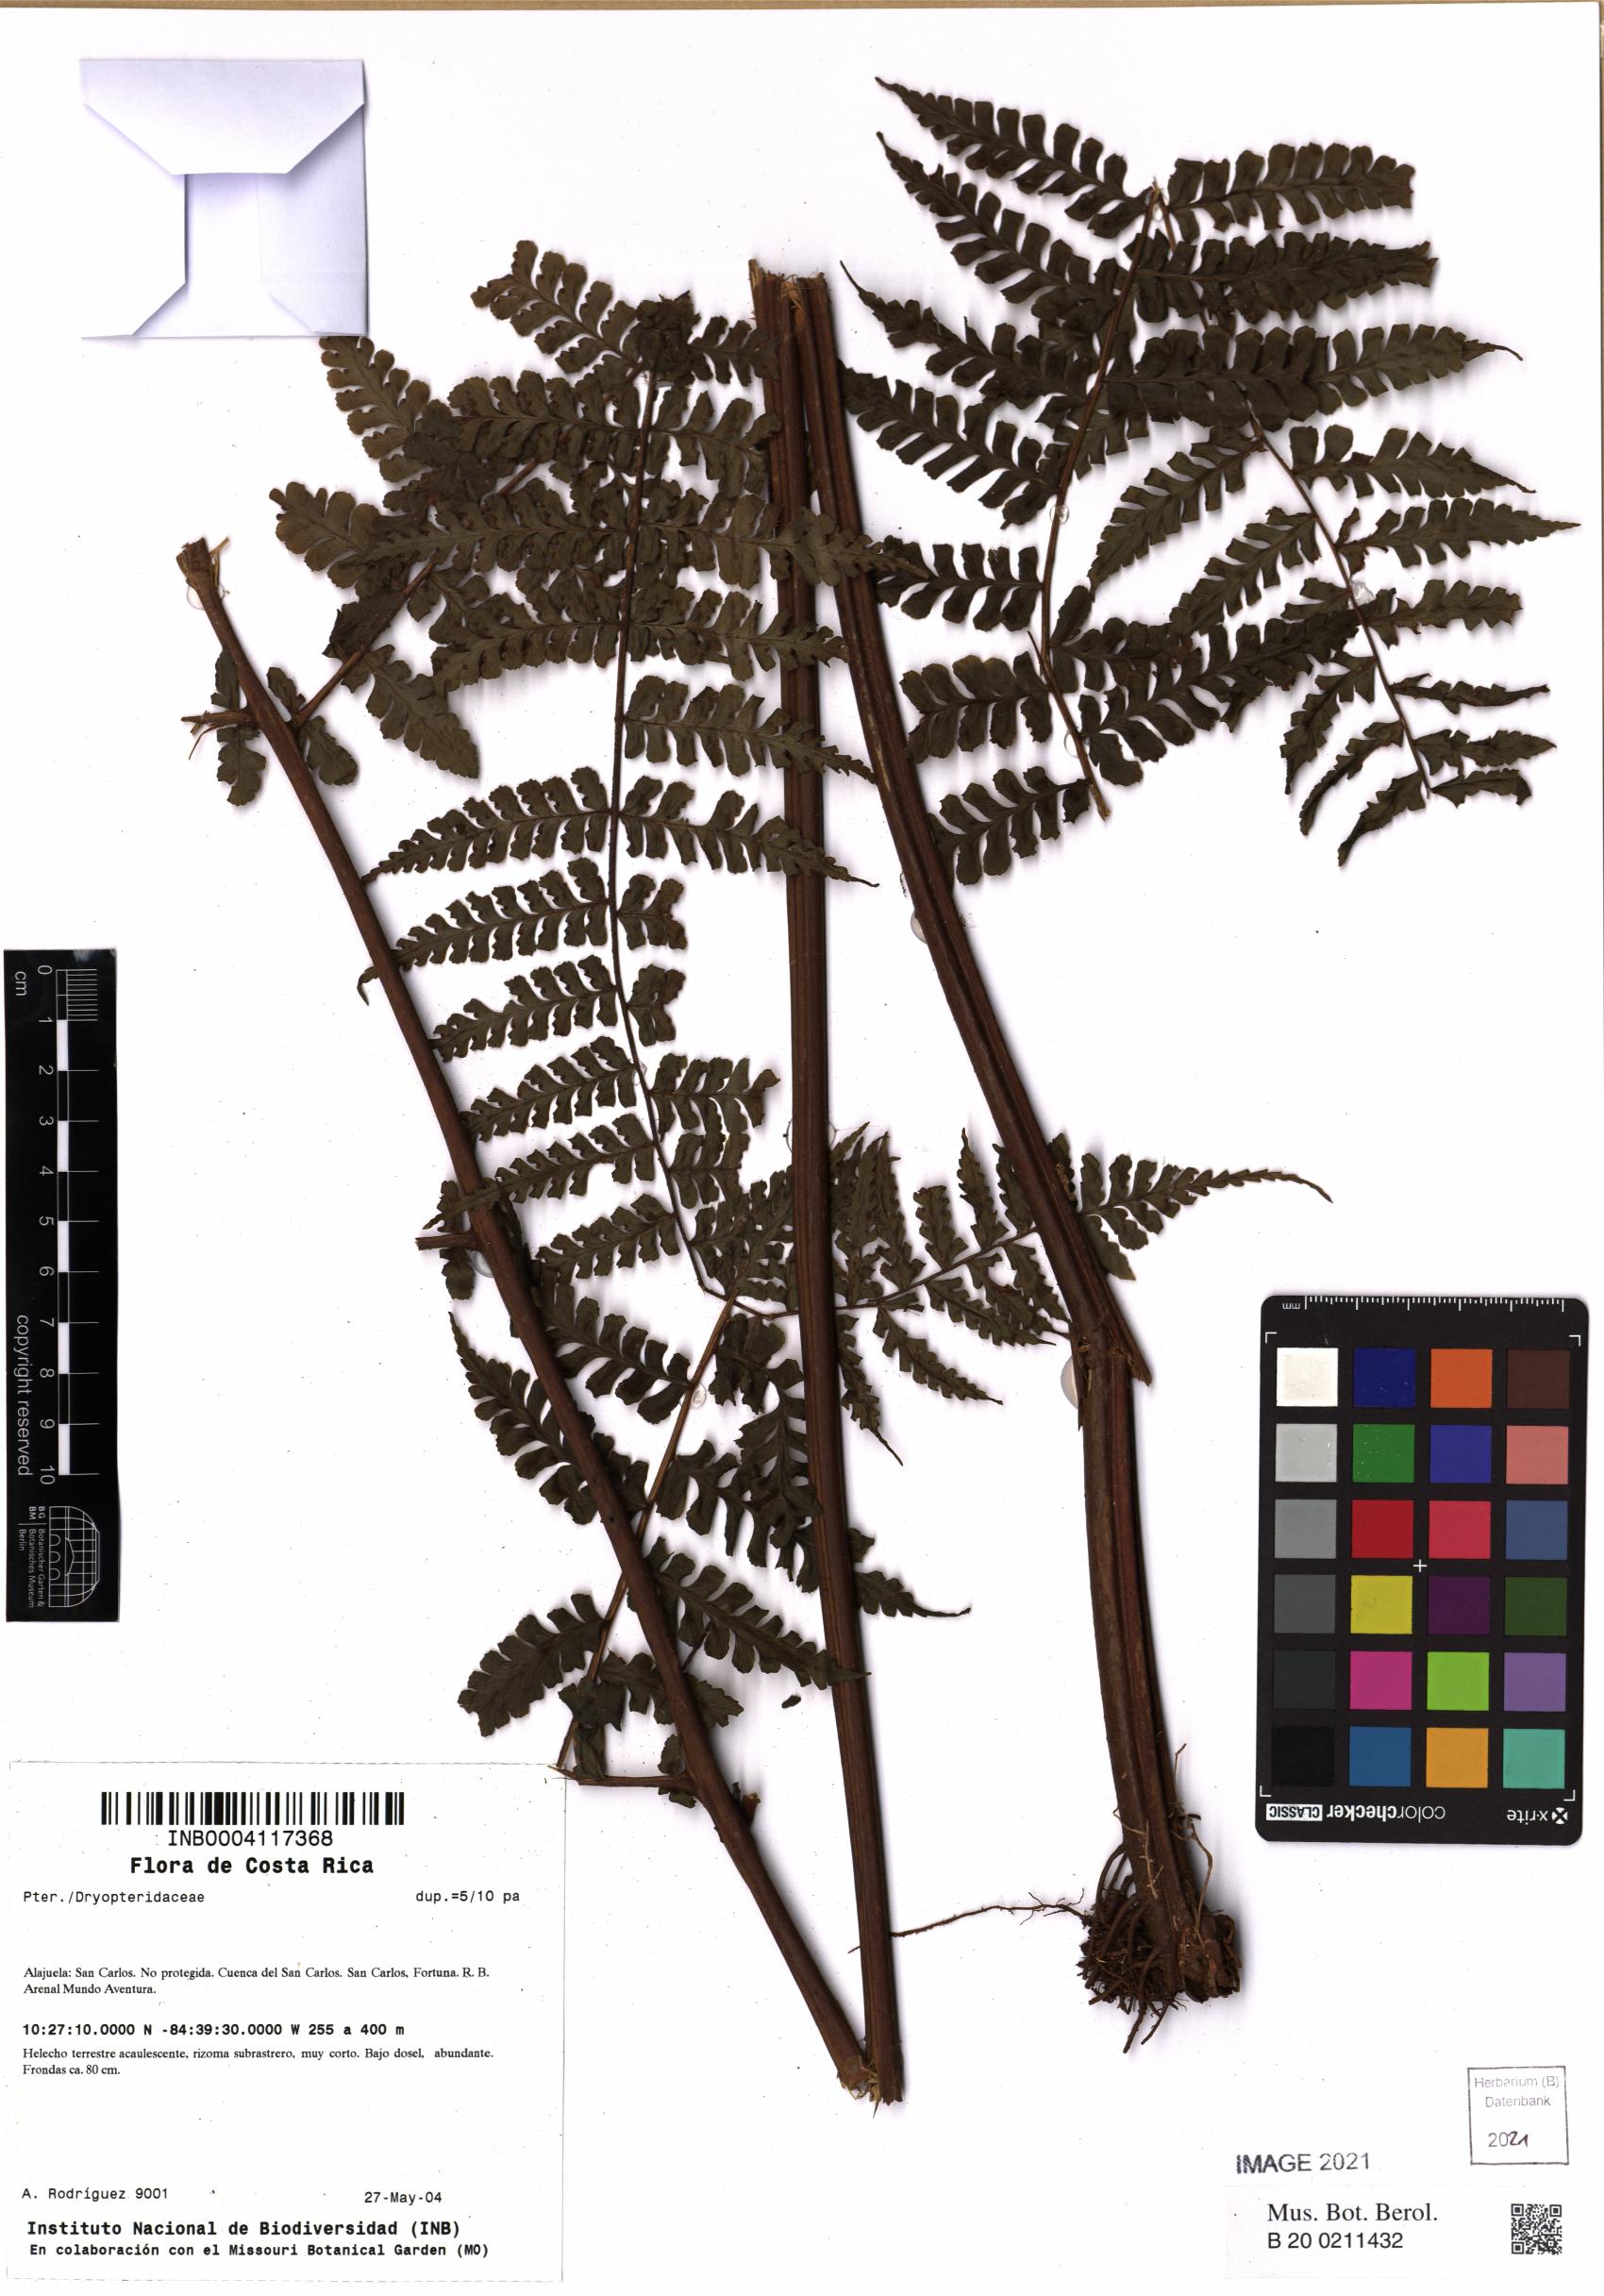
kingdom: Plantae
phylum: Tracheophyta
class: Polypodiopsida
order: Polypodiales
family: Dryopteridaceae
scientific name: Dryopteridaceae
